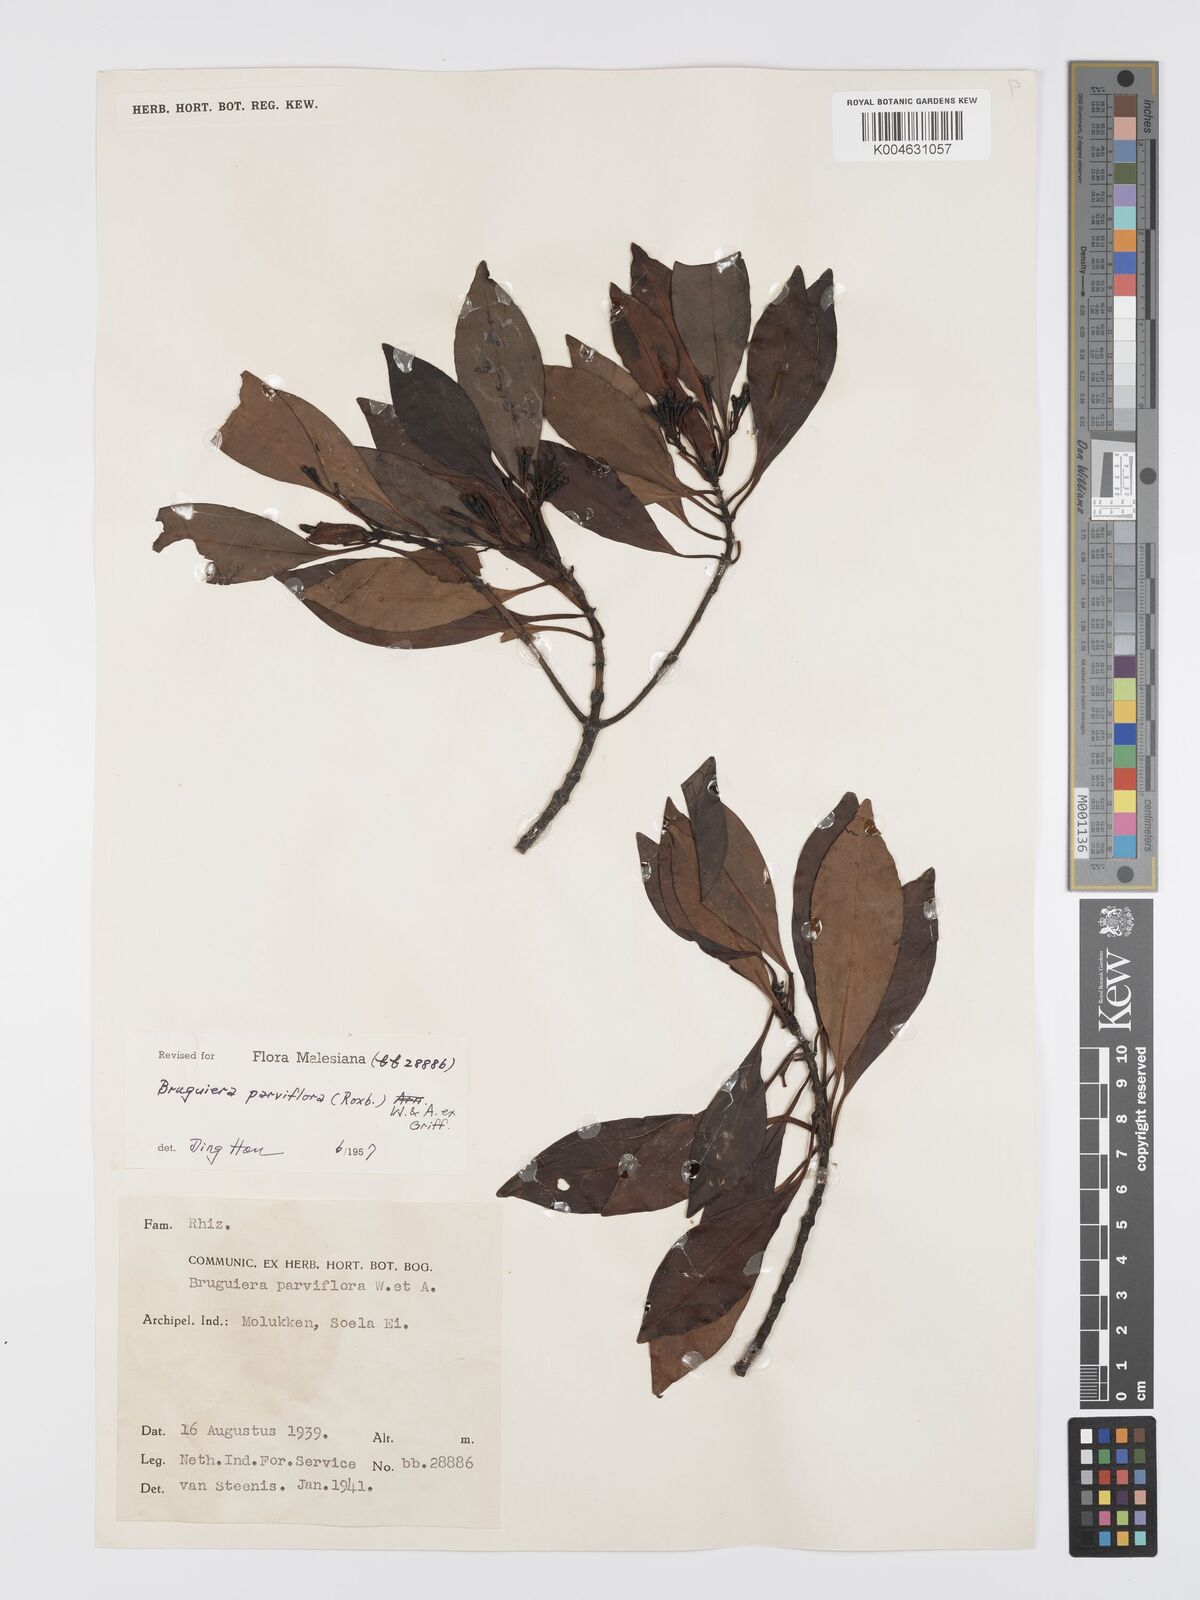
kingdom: Plantae
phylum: Tracheophyta
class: Magnoliopsida
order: Malpighiales
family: Rhizophoraceae
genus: Bruguiera
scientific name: Bruguiera parviflora
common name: Smallflower bruguiera
